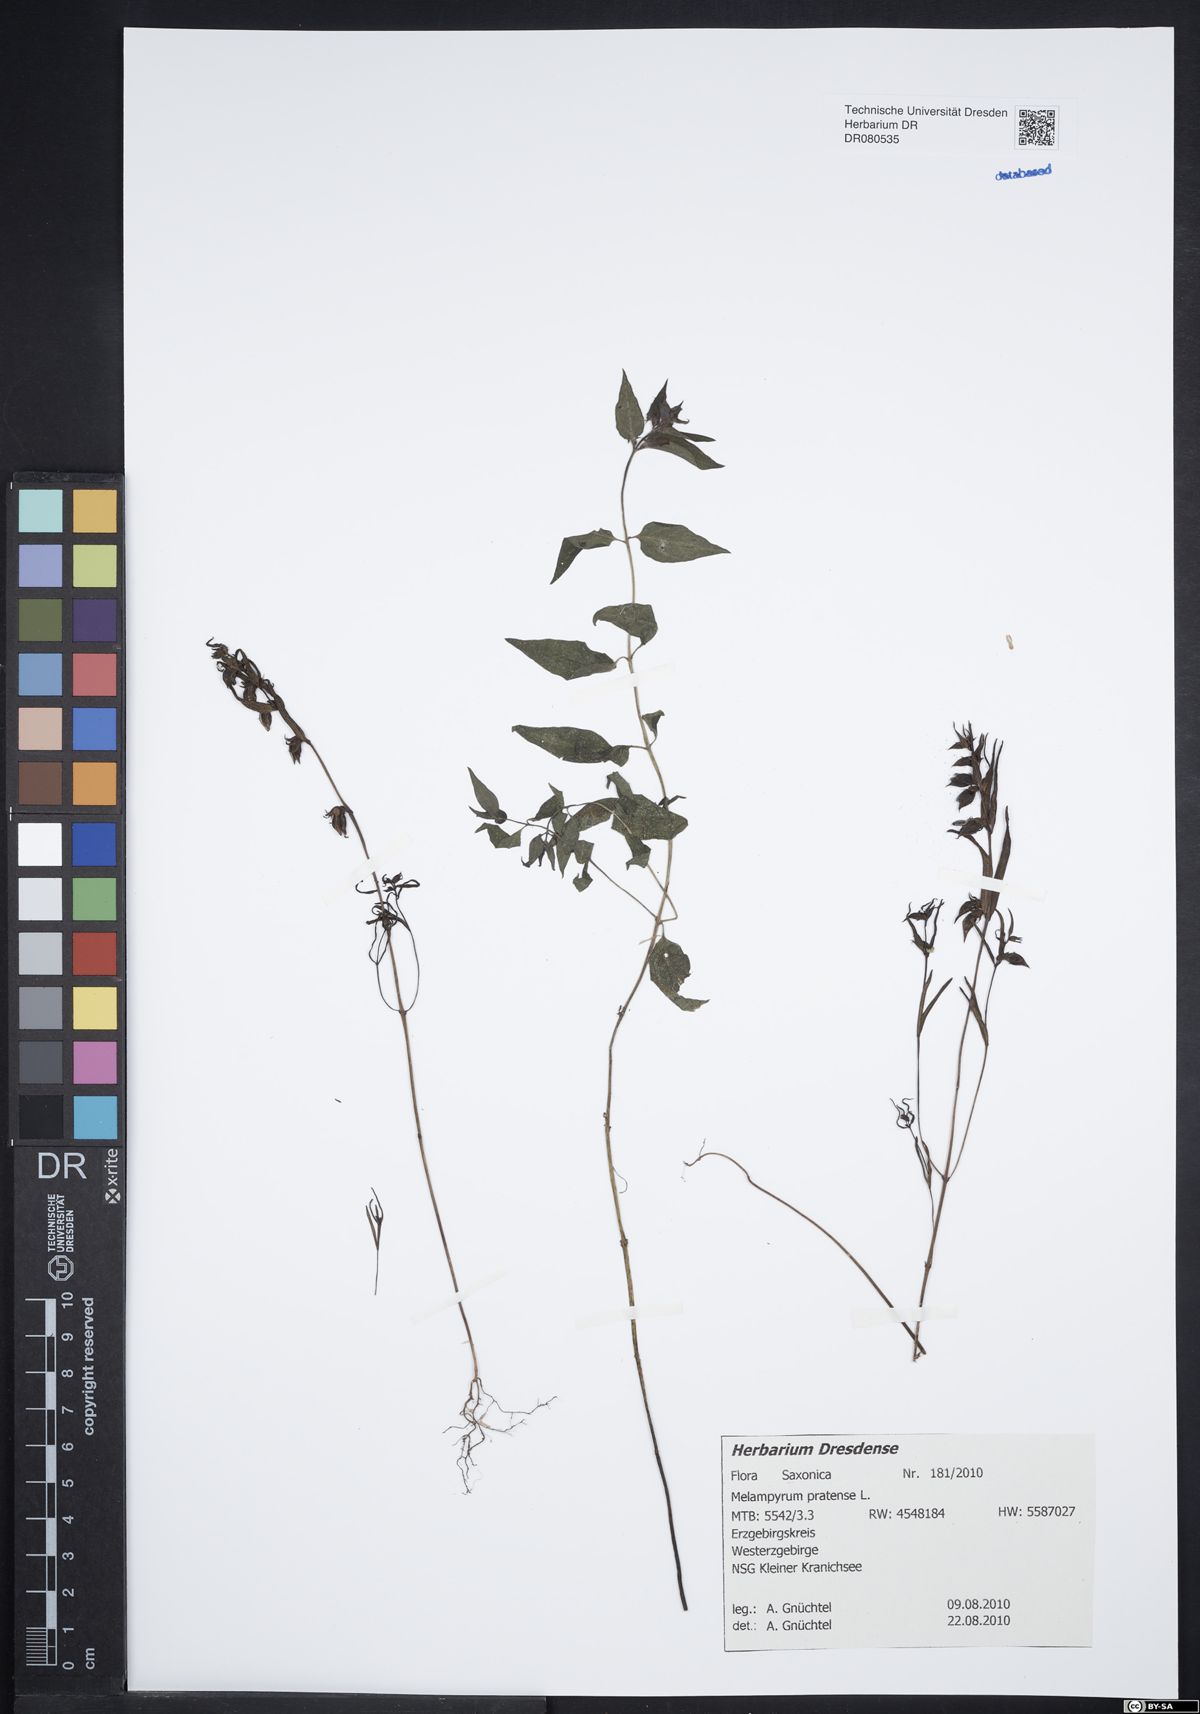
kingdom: Plantae
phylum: Tracheophyta
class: Magnoliopsida
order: Lamiales
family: Orobanchaceae
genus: Melampyrum
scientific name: Melampyrum pratense
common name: Common cow-wheat
